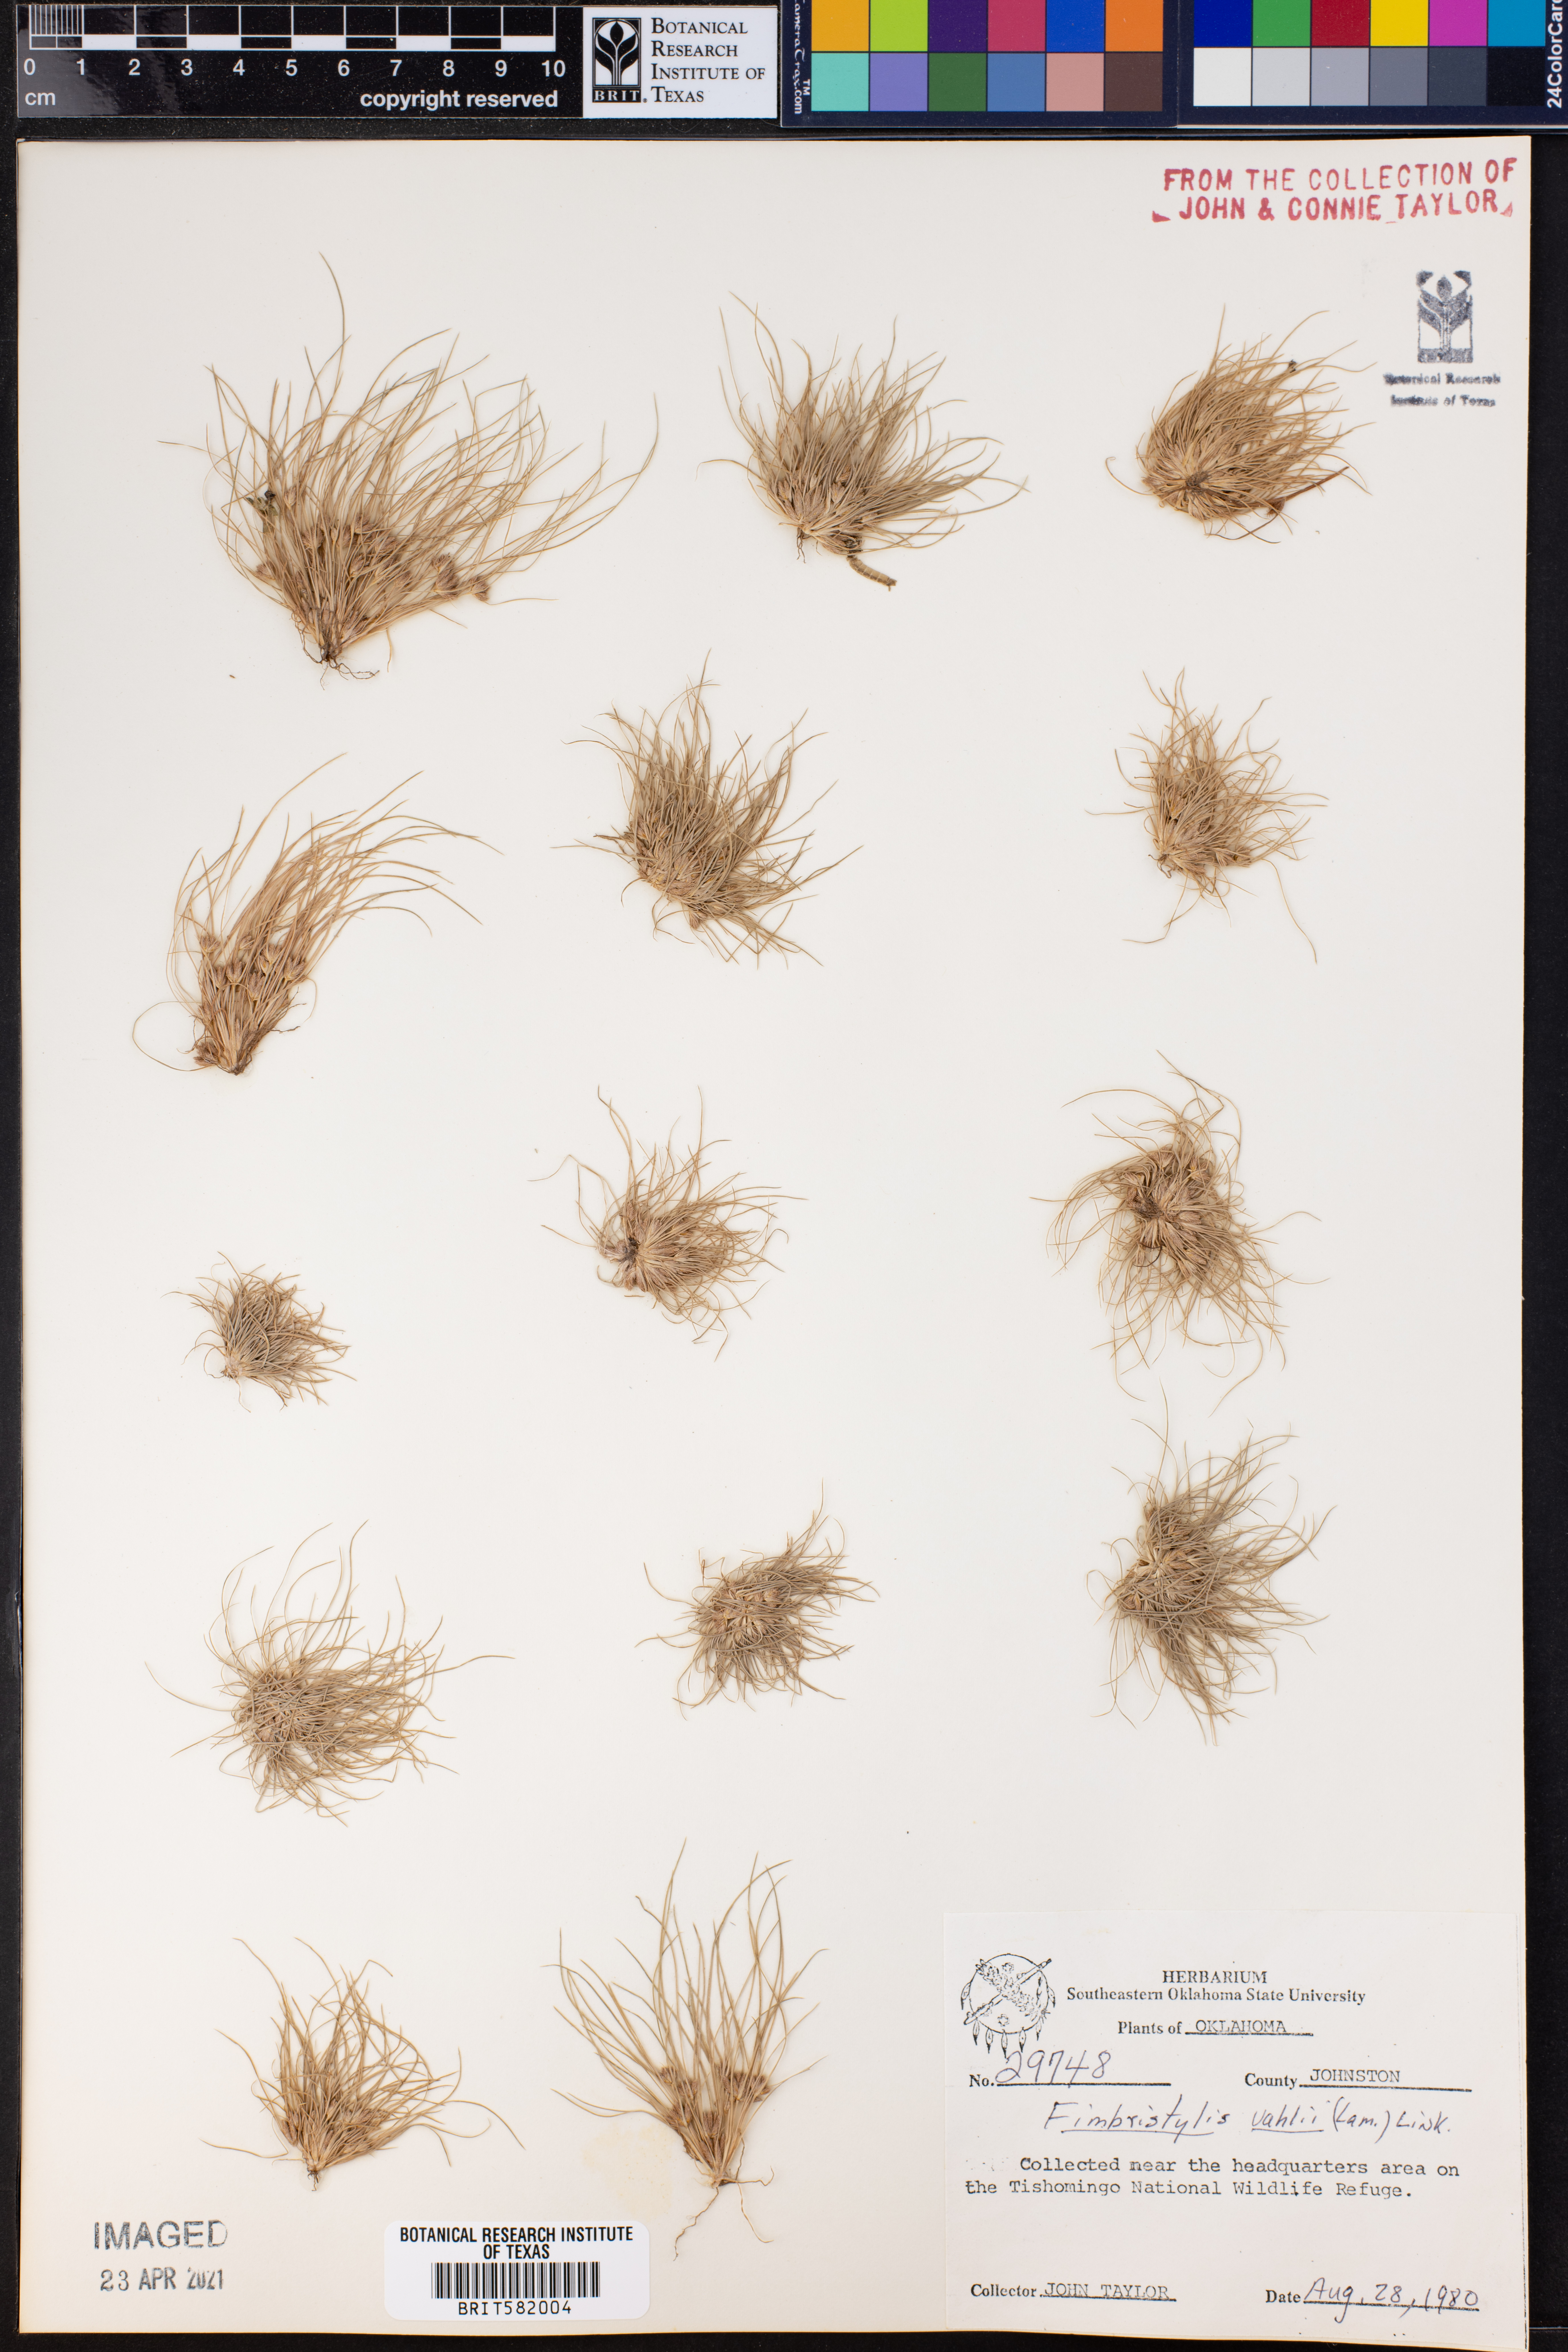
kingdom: Plantae
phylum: Tracheophyta
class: Liliopsida
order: Poales
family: Cyperaceae
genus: Fimbristylis
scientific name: Fimbristylis vahlii
